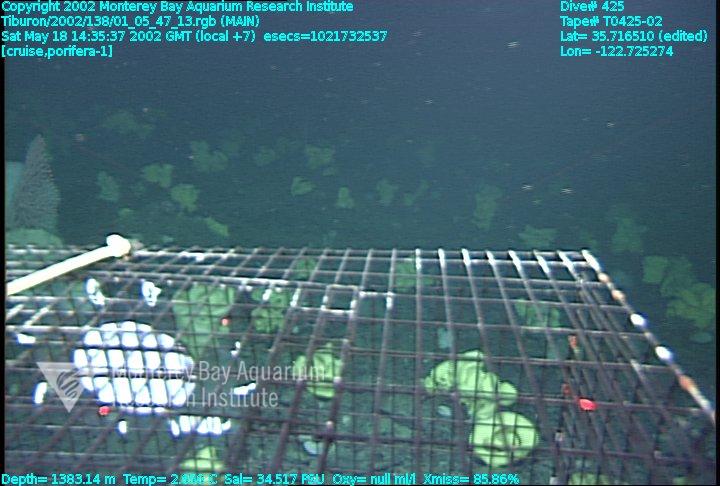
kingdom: Animalia
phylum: Porifera
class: Hexactinellida
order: Lyssacinosida
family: Rossellidae
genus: Staurocalyptus
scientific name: Staurocalyptus
